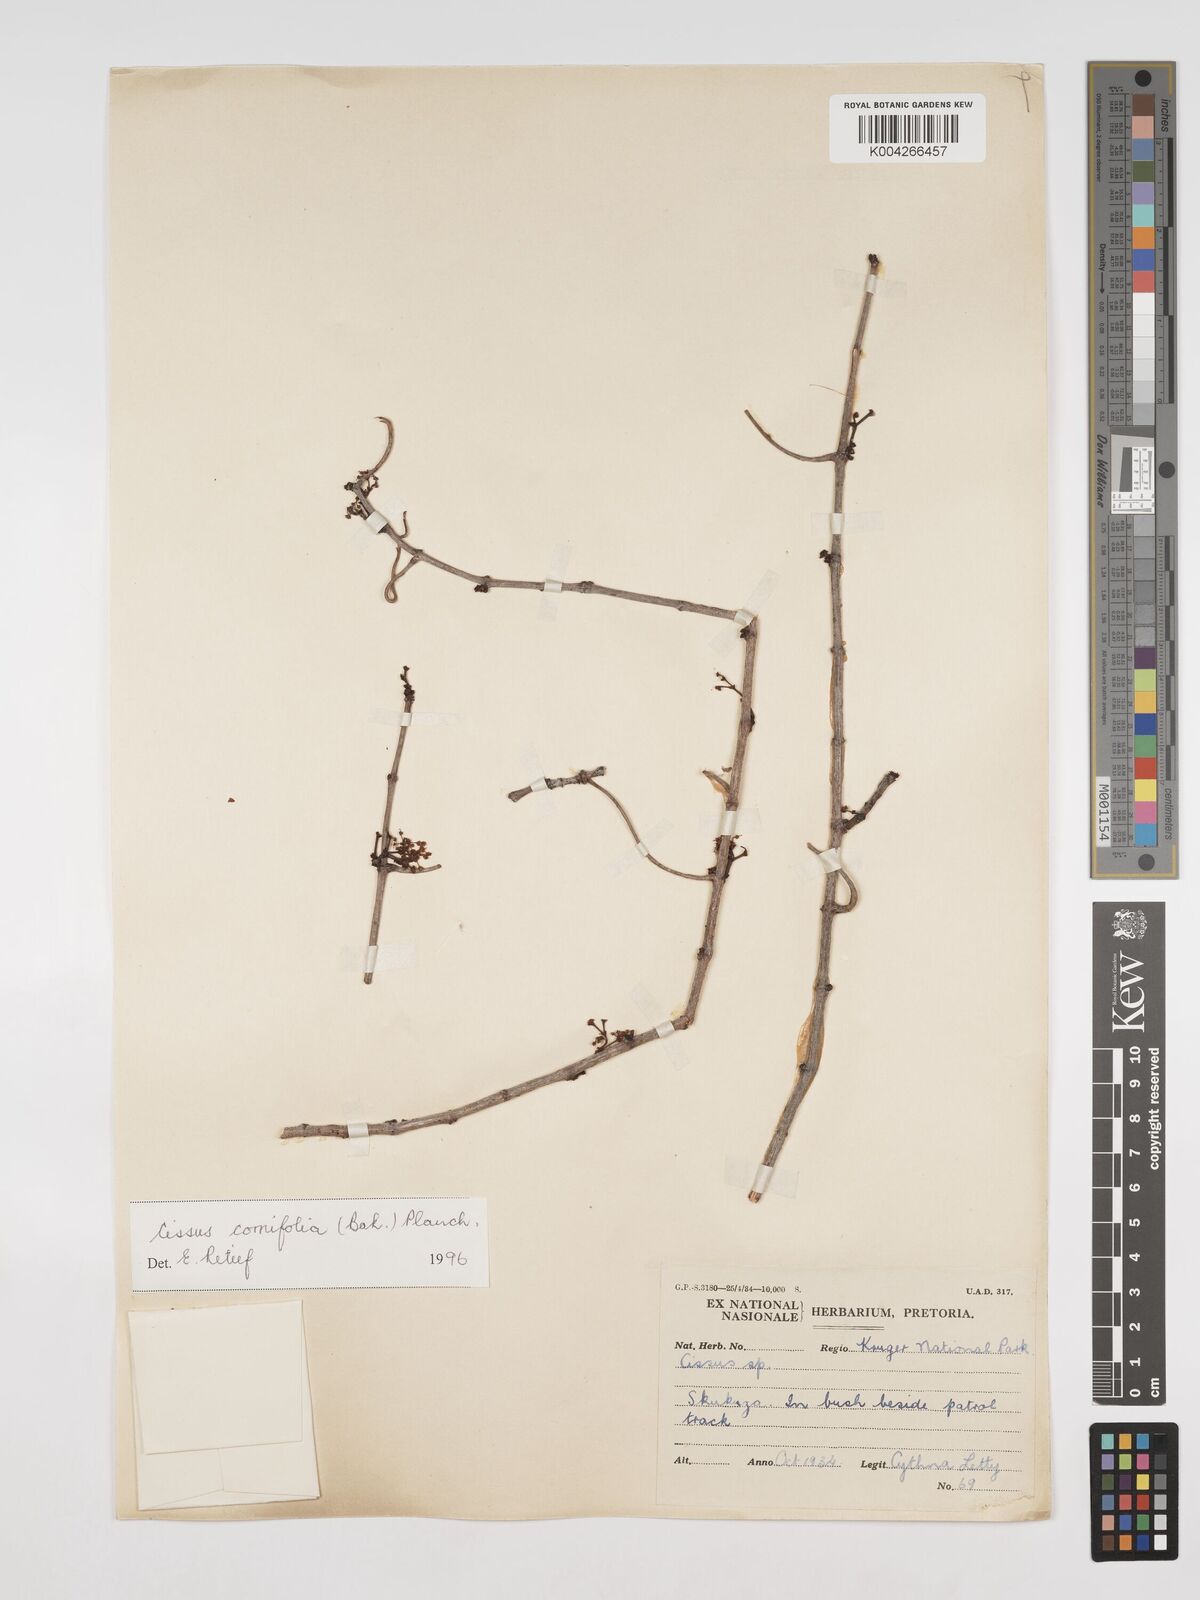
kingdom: Plantae
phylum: Tracheophyta
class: Magnoliopsida
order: Vitales
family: Vitaceae
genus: Cissus
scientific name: Cissus cornifolia
